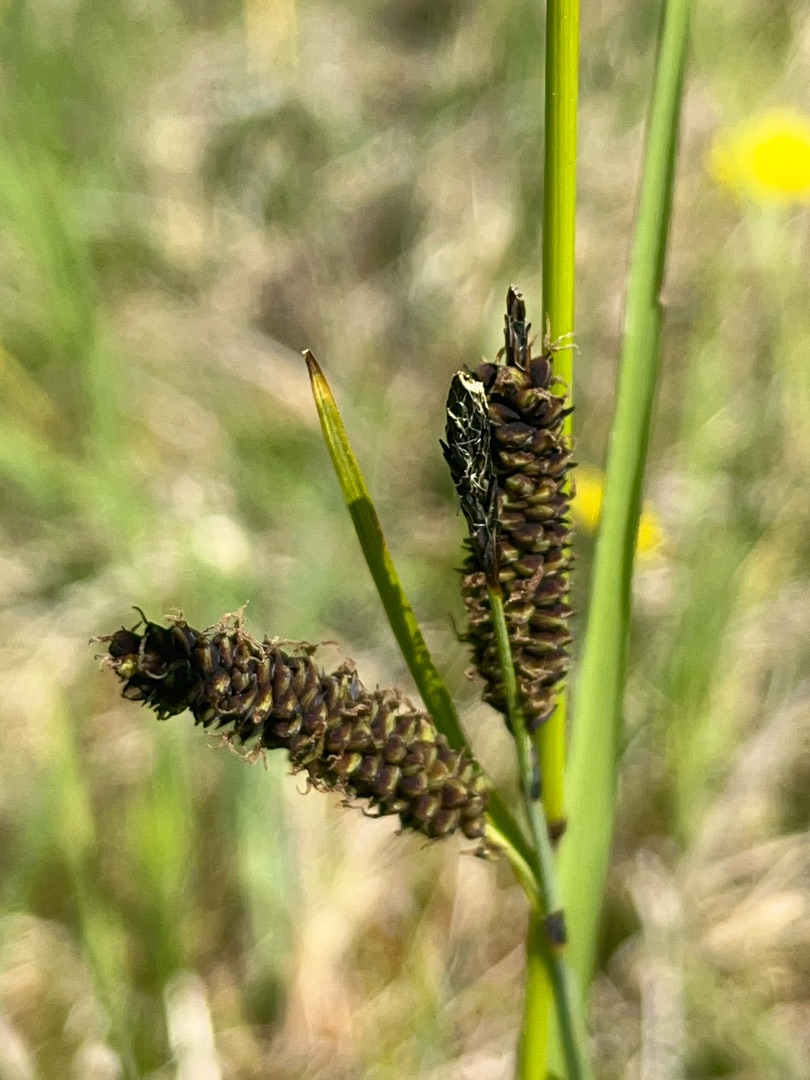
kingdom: Plantae
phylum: Tracheophyta
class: Liliopsida
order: Poales
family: Cyperaceae
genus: Carex
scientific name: Carex
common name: Starslægten
